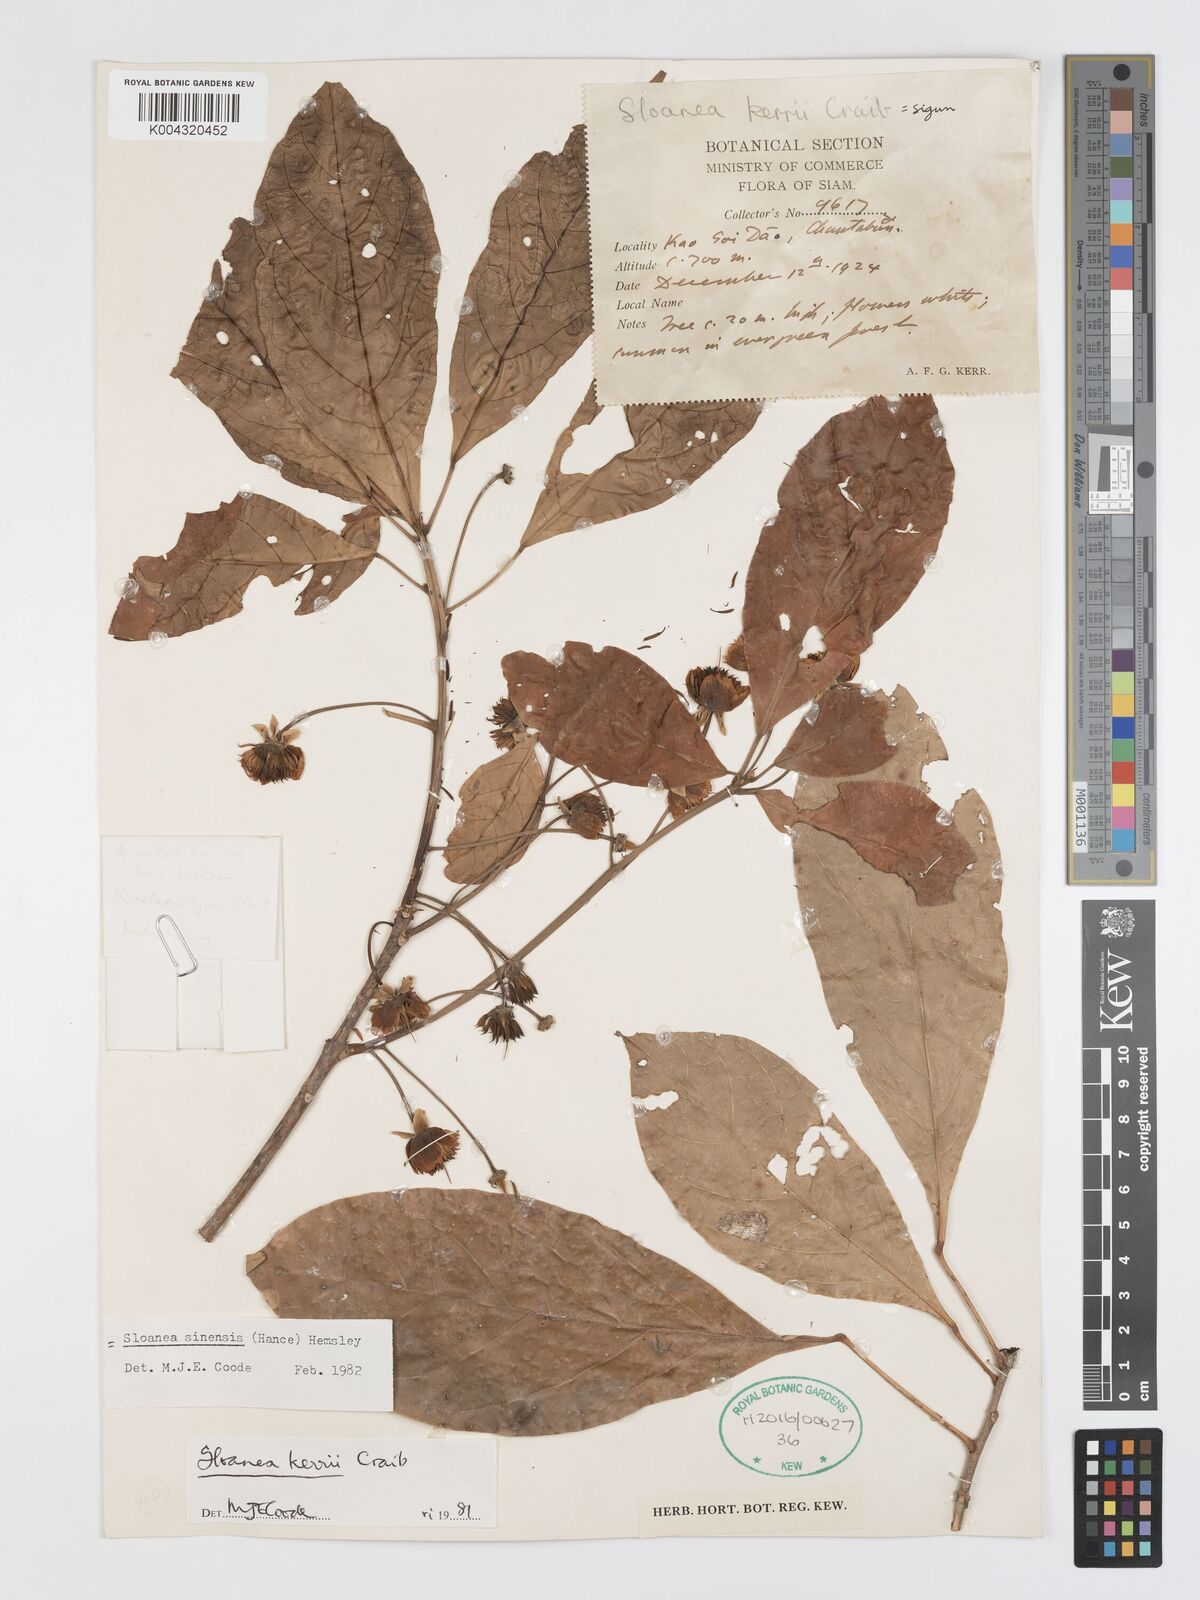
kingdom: Plantae
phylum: Tracheophyta
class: Magnoliopsida
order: Oxalidales
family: Elaeocarpaceae
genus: Sloanea
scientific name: Sloanea sinensis
